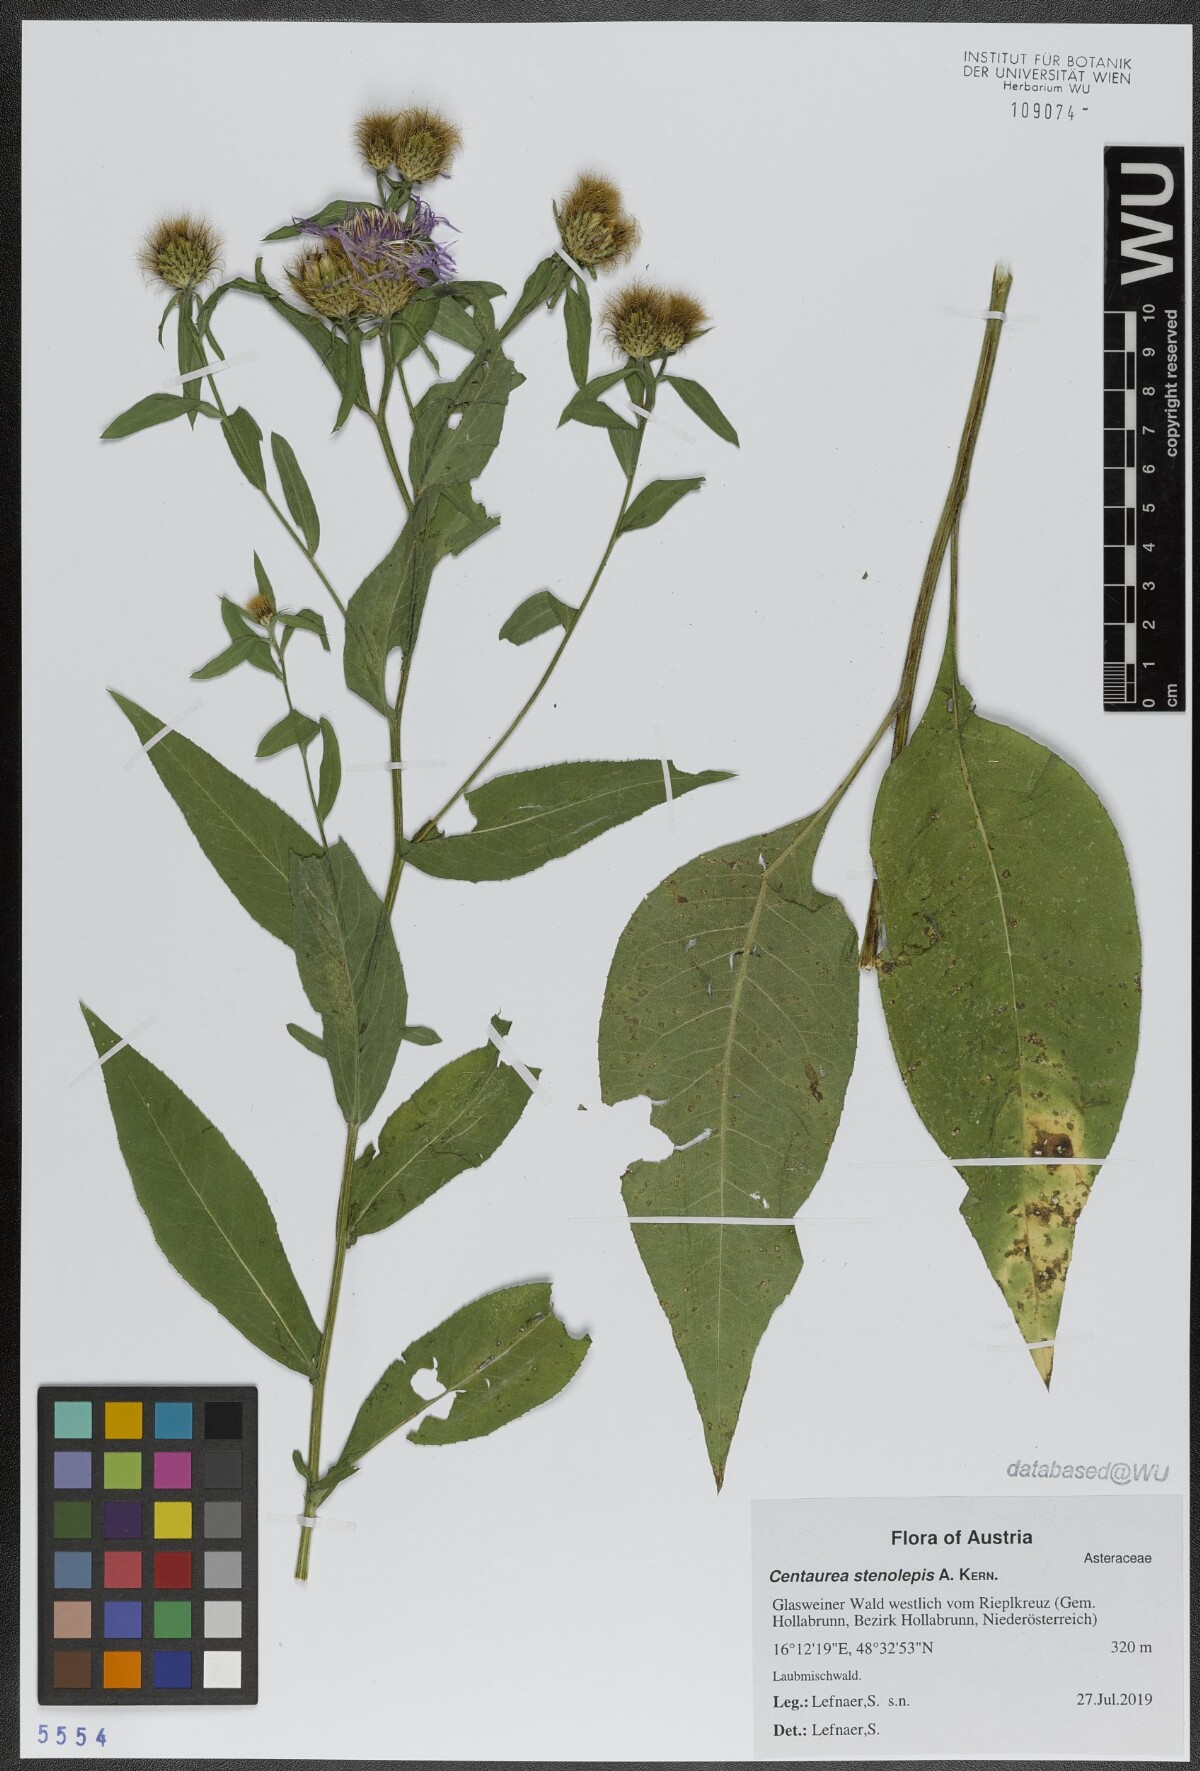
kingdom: Plantae
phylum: Tracheophyta
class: Magnoliopsida
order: Asterales
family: Asteraceae
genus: Centaurea
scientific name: Centaurea stenolepis
